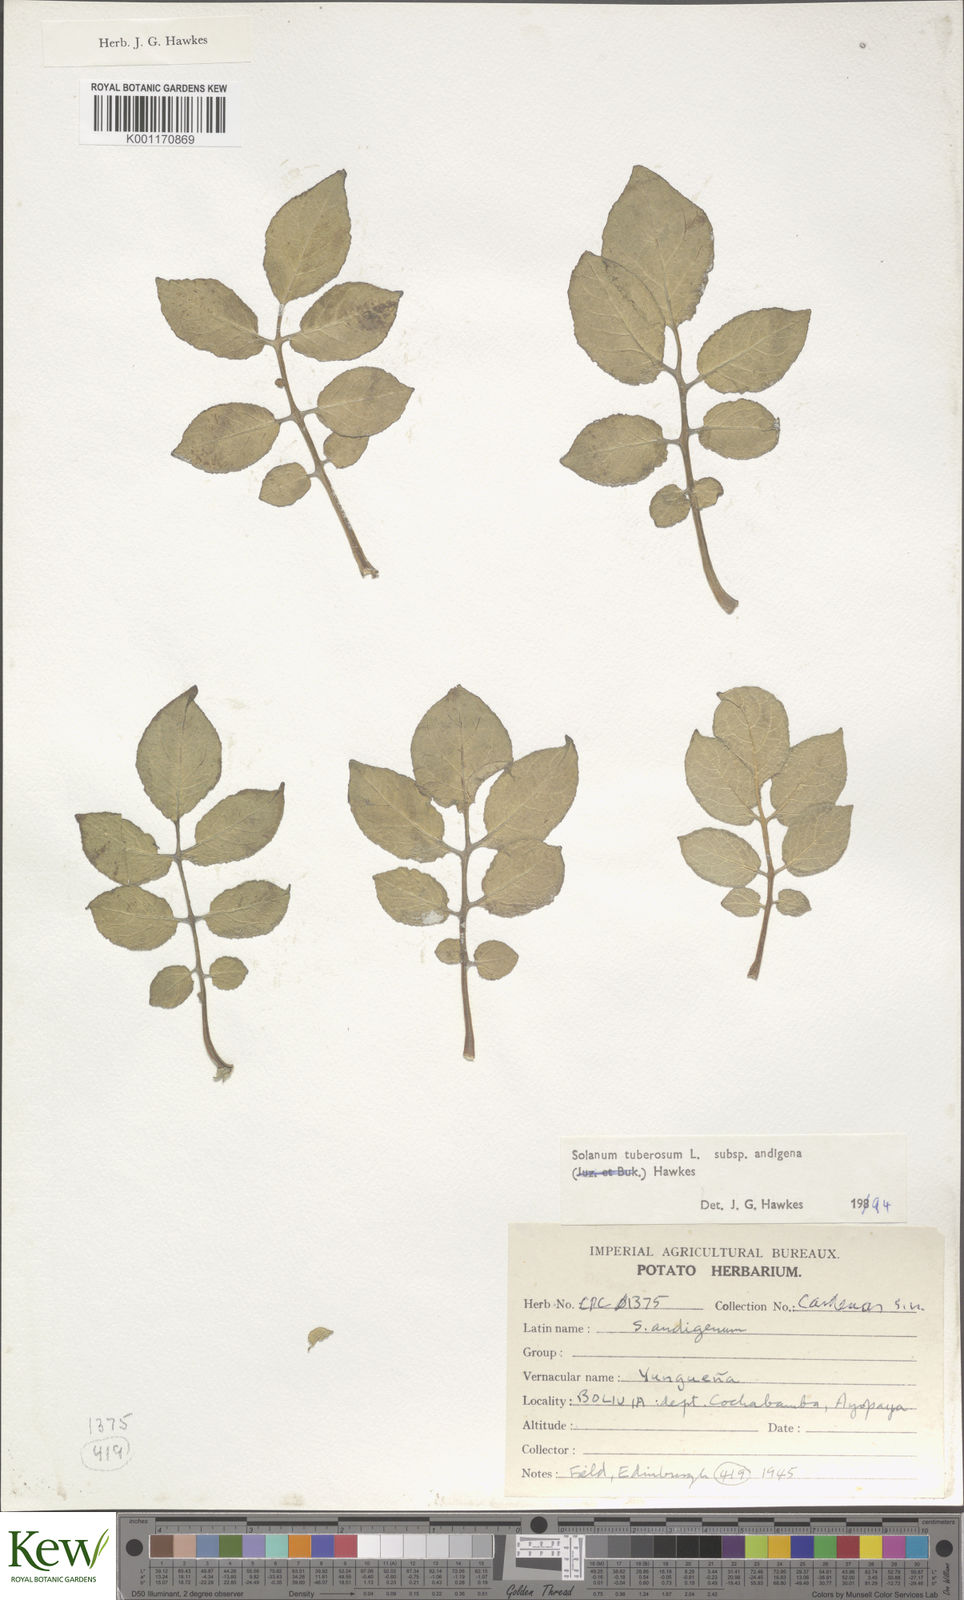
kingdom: Plantae
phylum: Tracheophyta
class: Magnoliopsida
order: Solanales
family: Solanaceae
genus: Solanum
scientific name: Solanum tuberosum
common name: Potato
